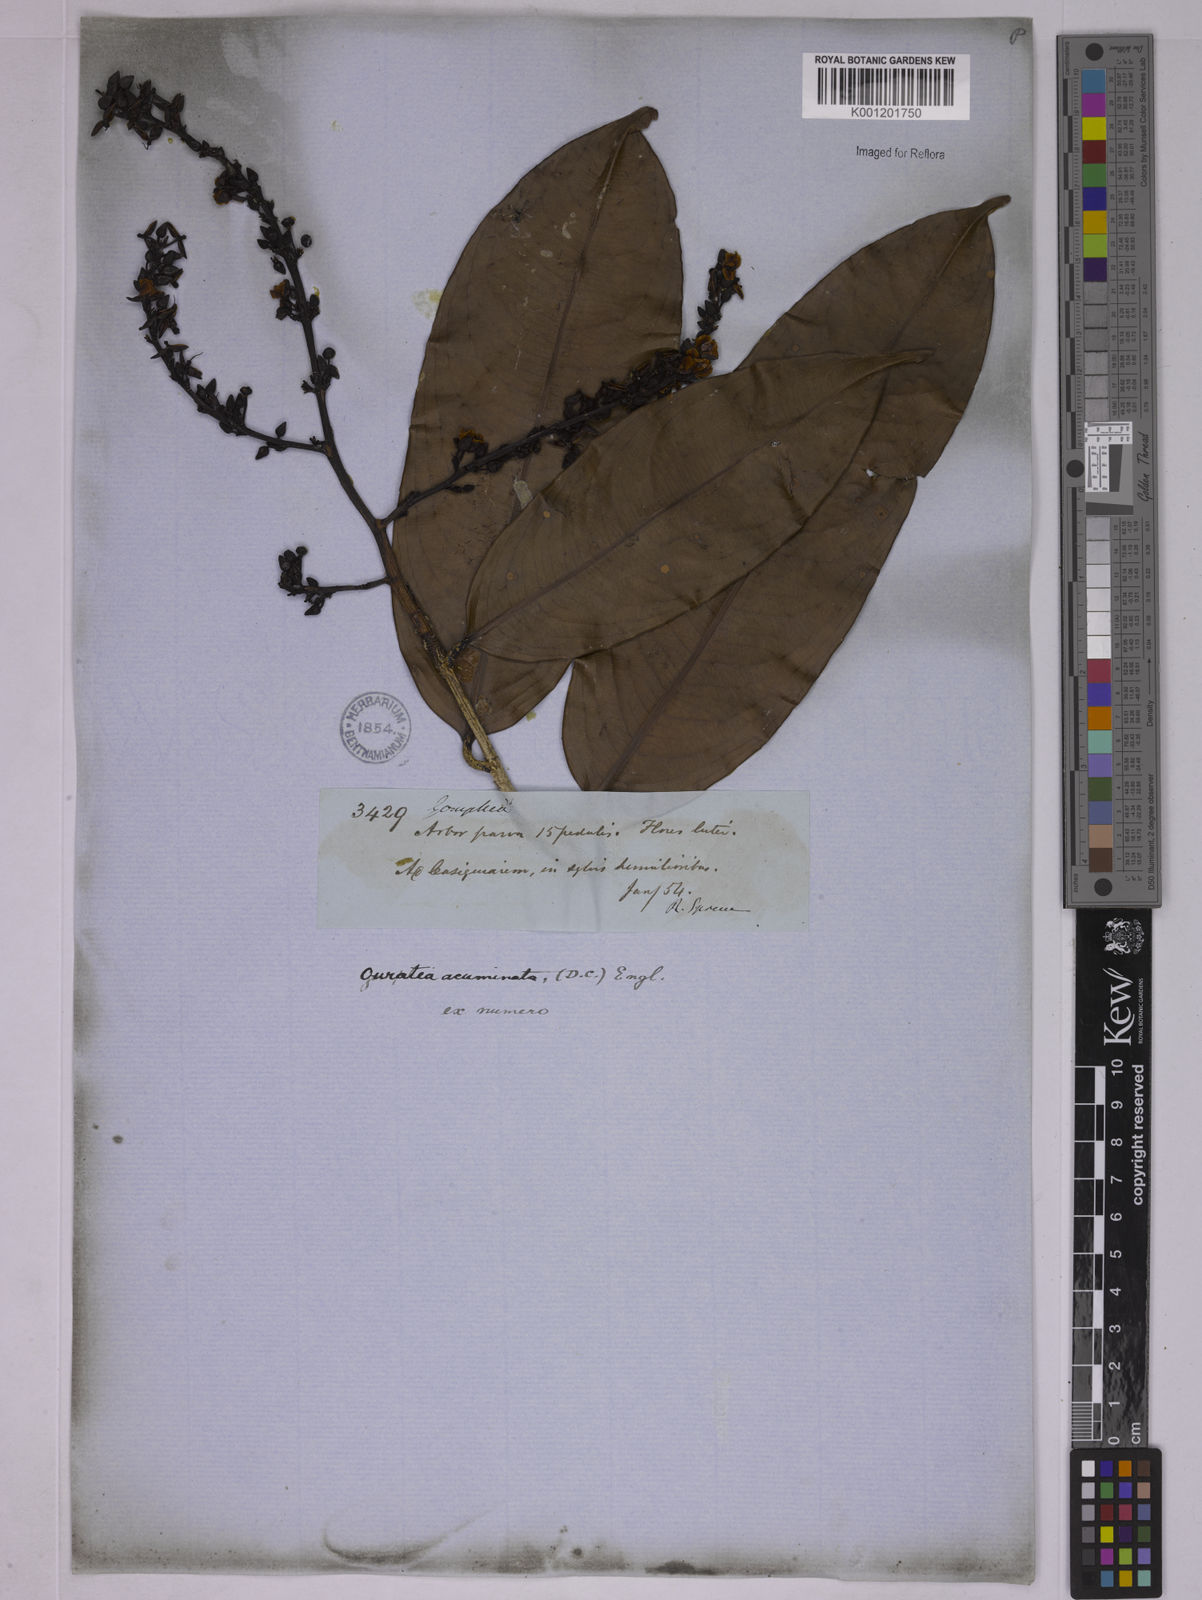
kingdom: Plantae
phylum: Tracheophyta
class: Magnoliopsida
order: Malpighiales
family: Ochnaceae
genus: Ouratea
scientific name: Ouratea acuminata
